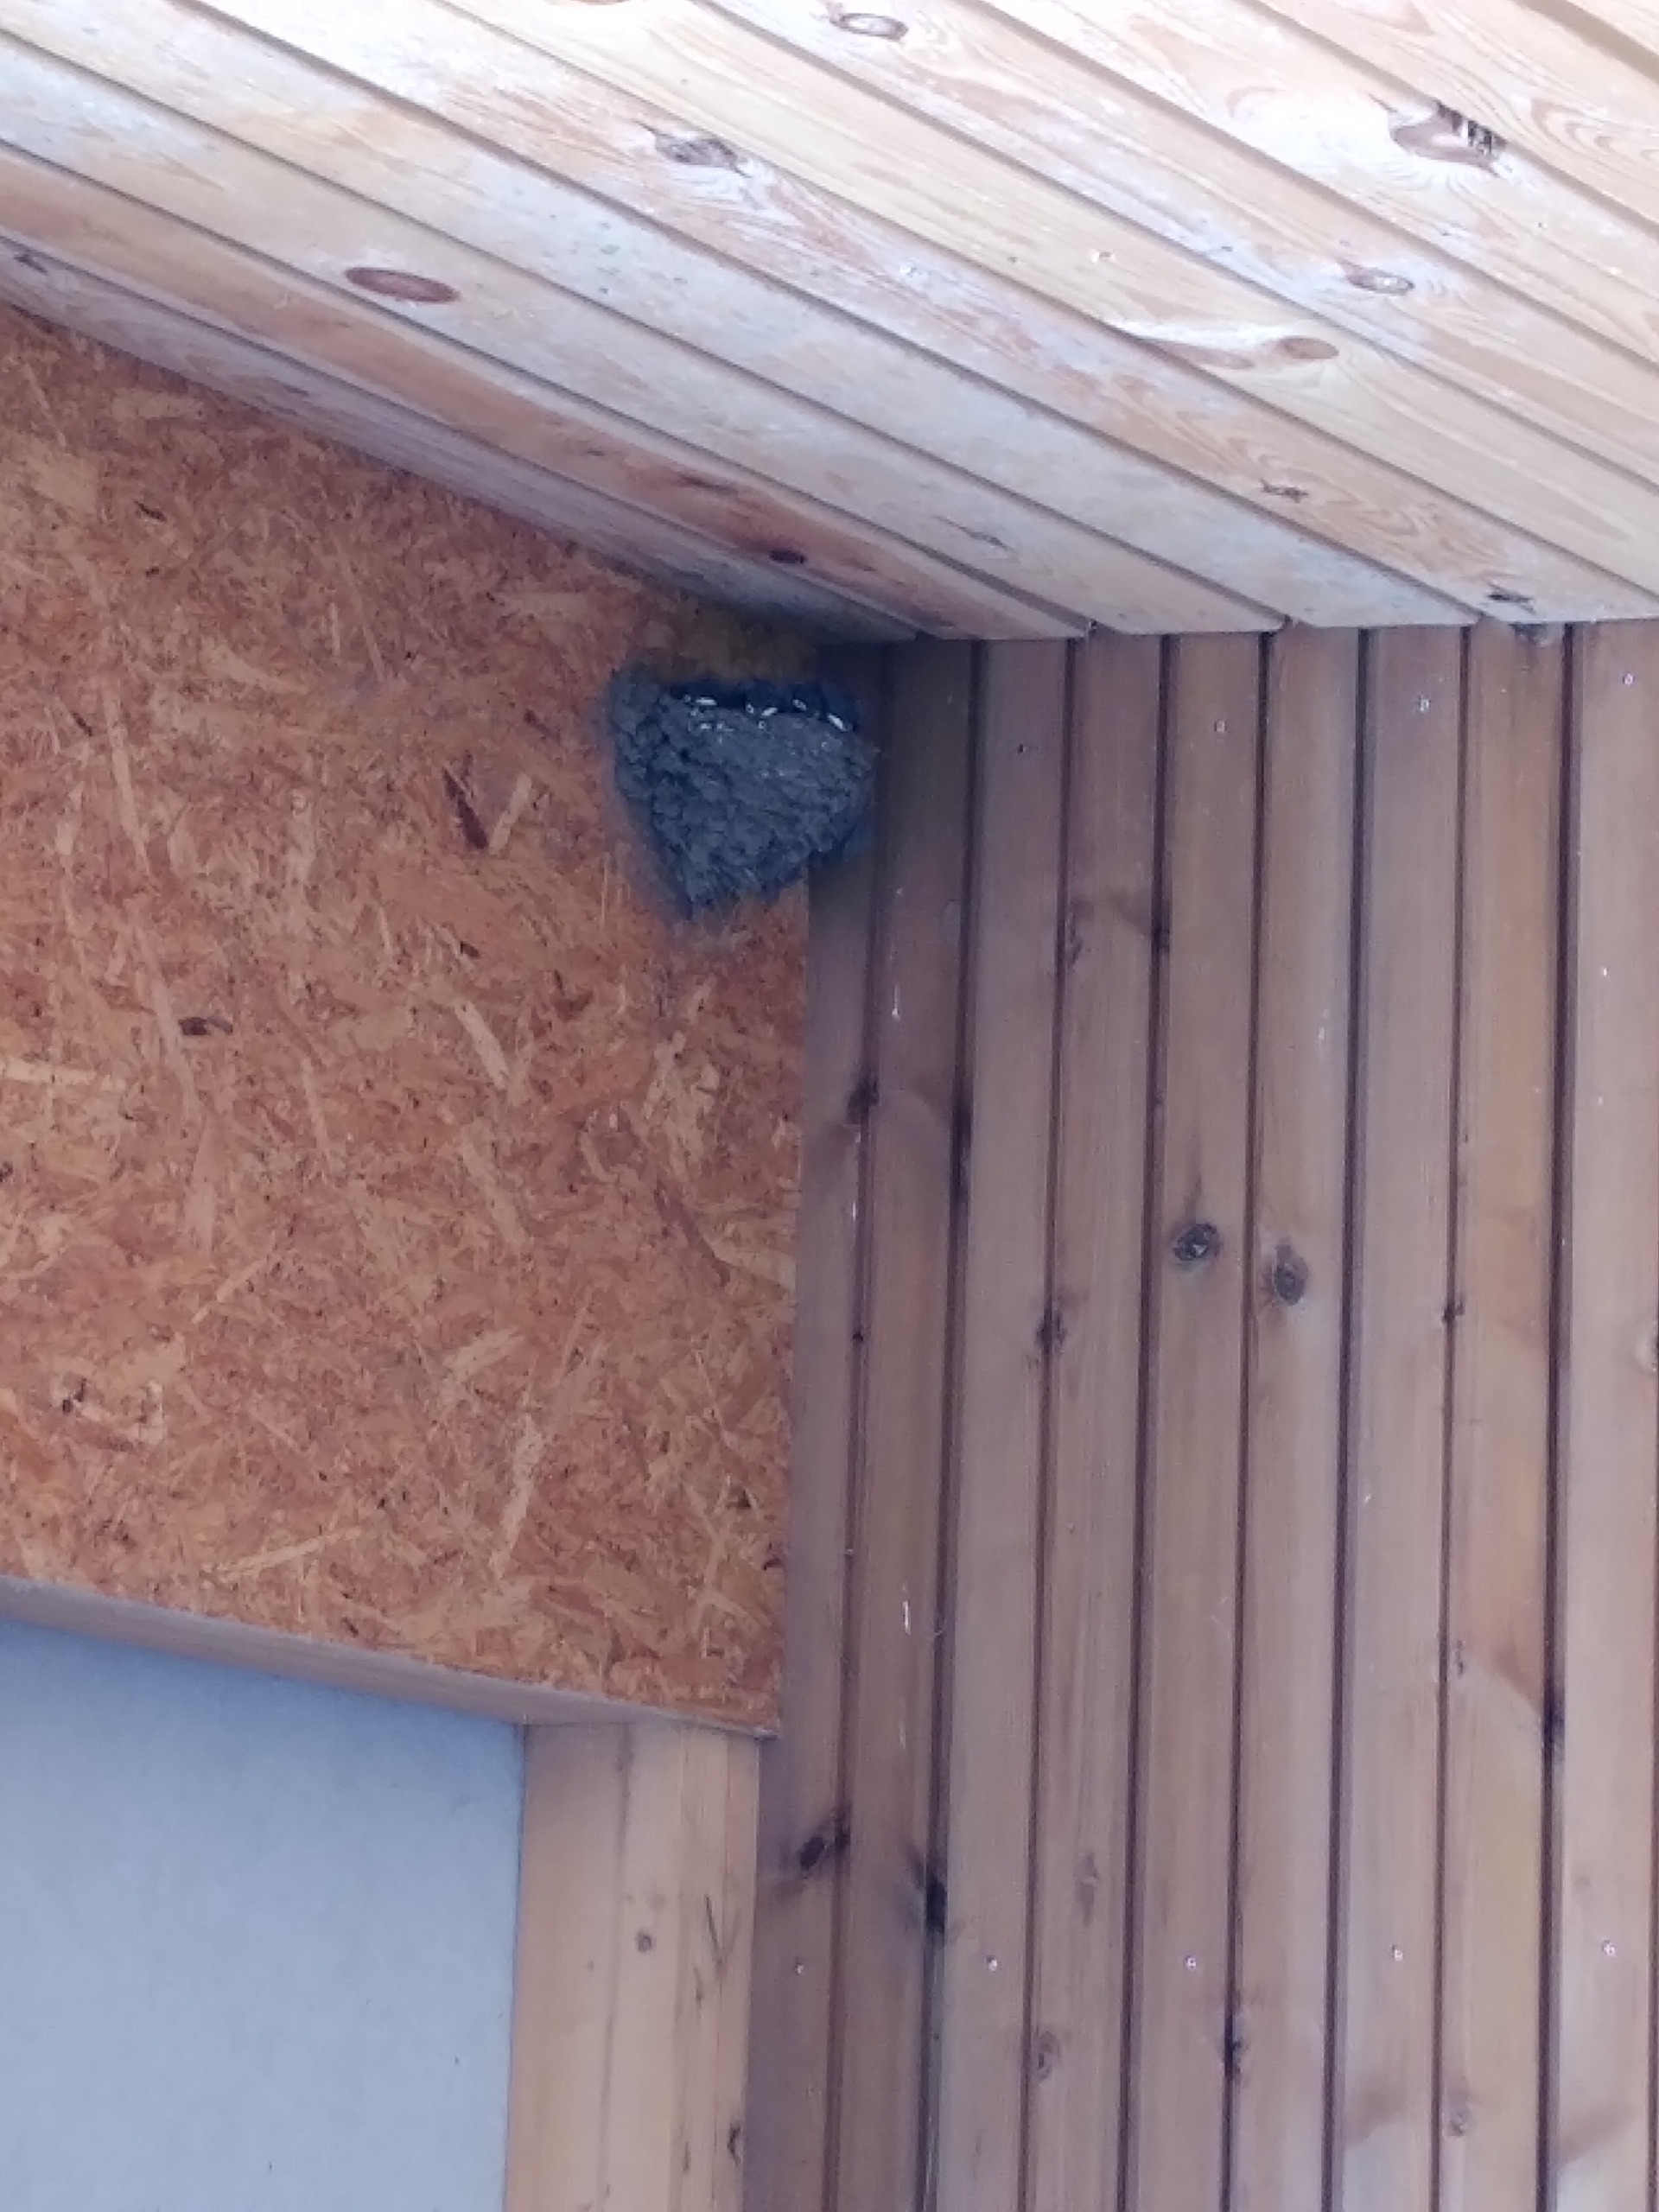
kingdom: Animalia
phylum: Chordata
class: Aves
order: Passeriformes
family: Hirundinidae
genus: Hirundo
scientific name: Hirundo rustica
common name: Landsvale
